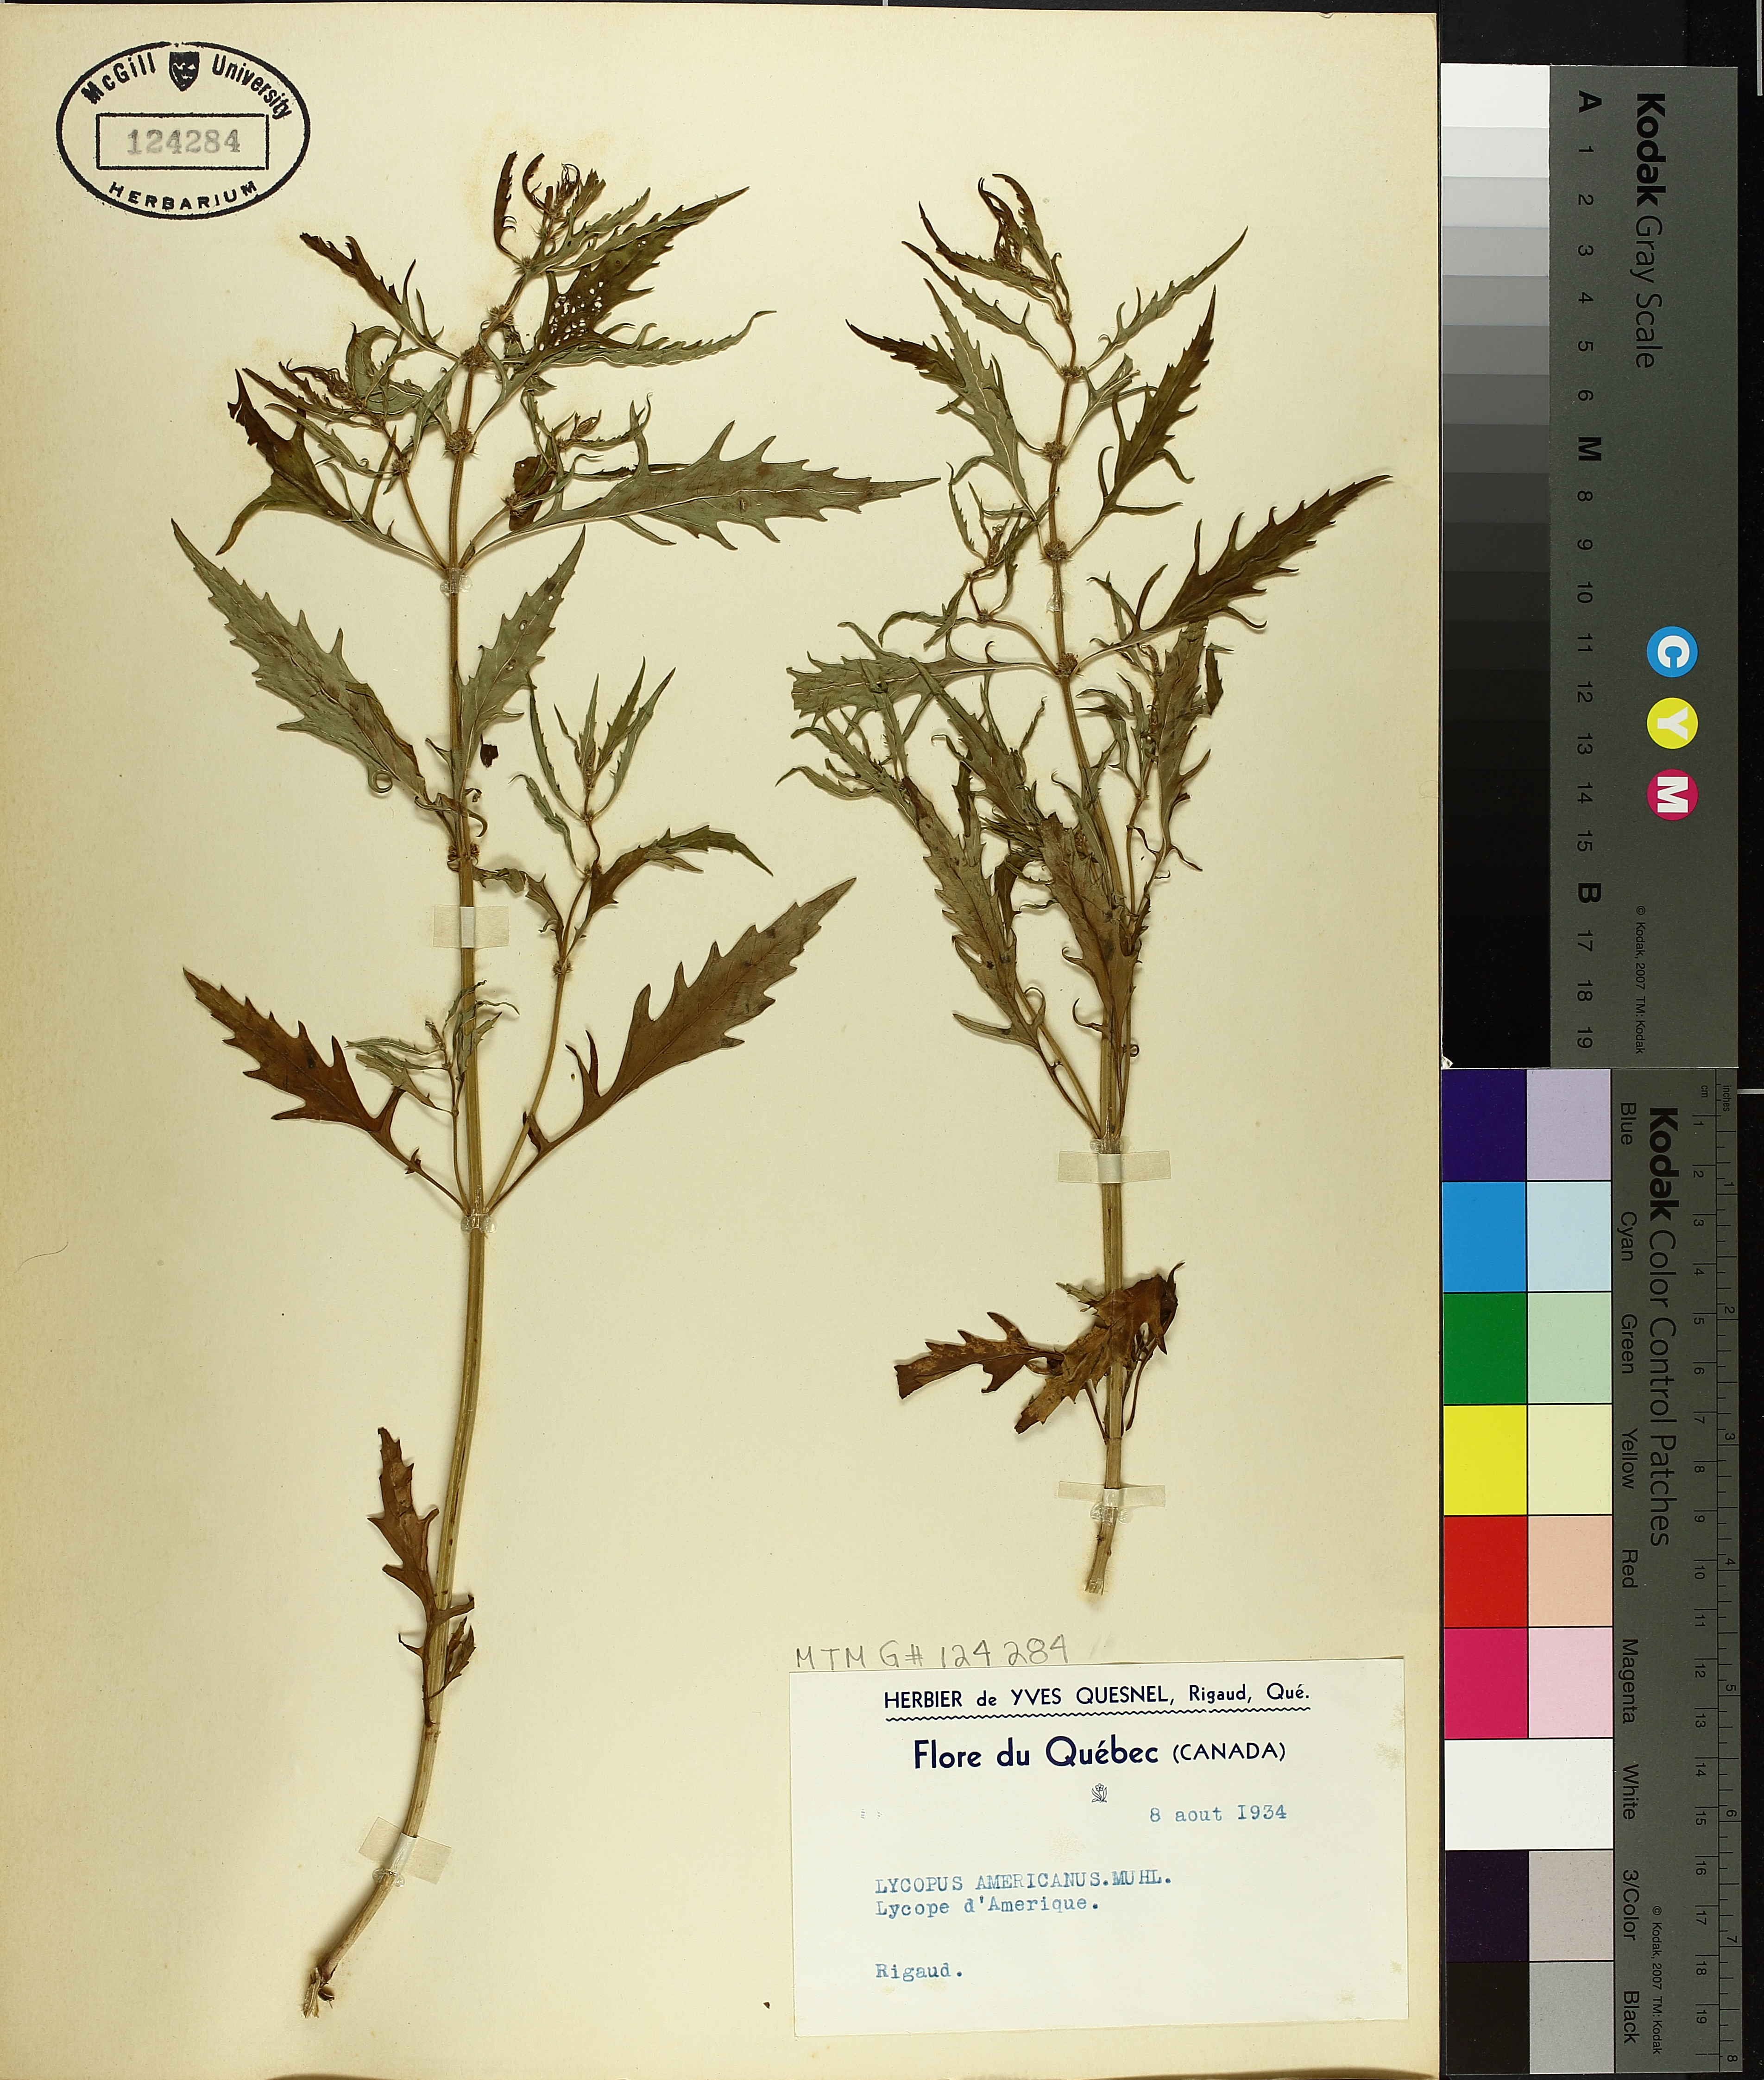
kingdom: Plantae
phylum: Tracheophyta
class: Magnoliopsida
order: Lamiales
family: Lamiaceae
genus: Lycopus
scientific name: Lycopus americanus
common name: American bugleweed
